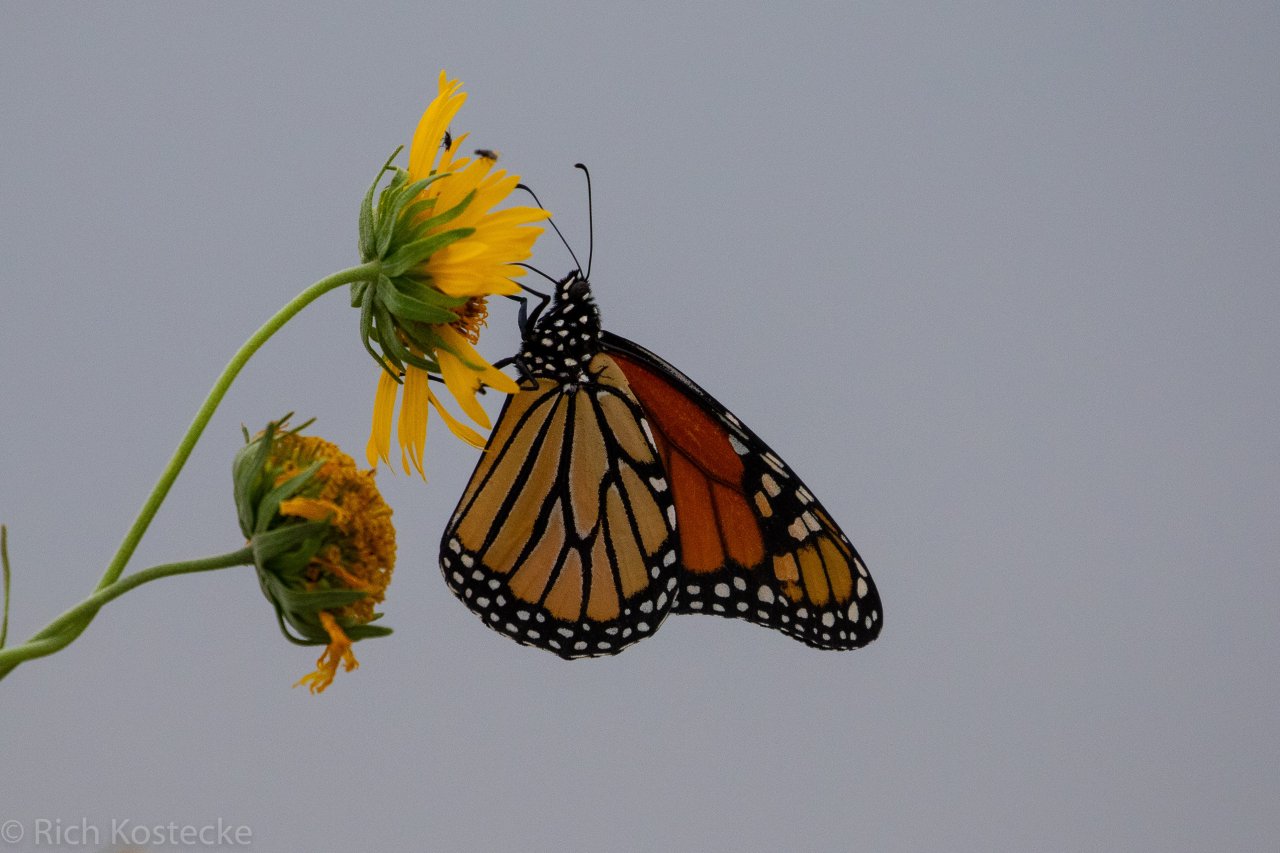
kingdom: Animalia
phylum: Arthropoda
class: Insecta
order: Lepidoptera
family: Nymphalidae
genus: Danaus
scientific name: Danaus plexippus
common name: Monarch
